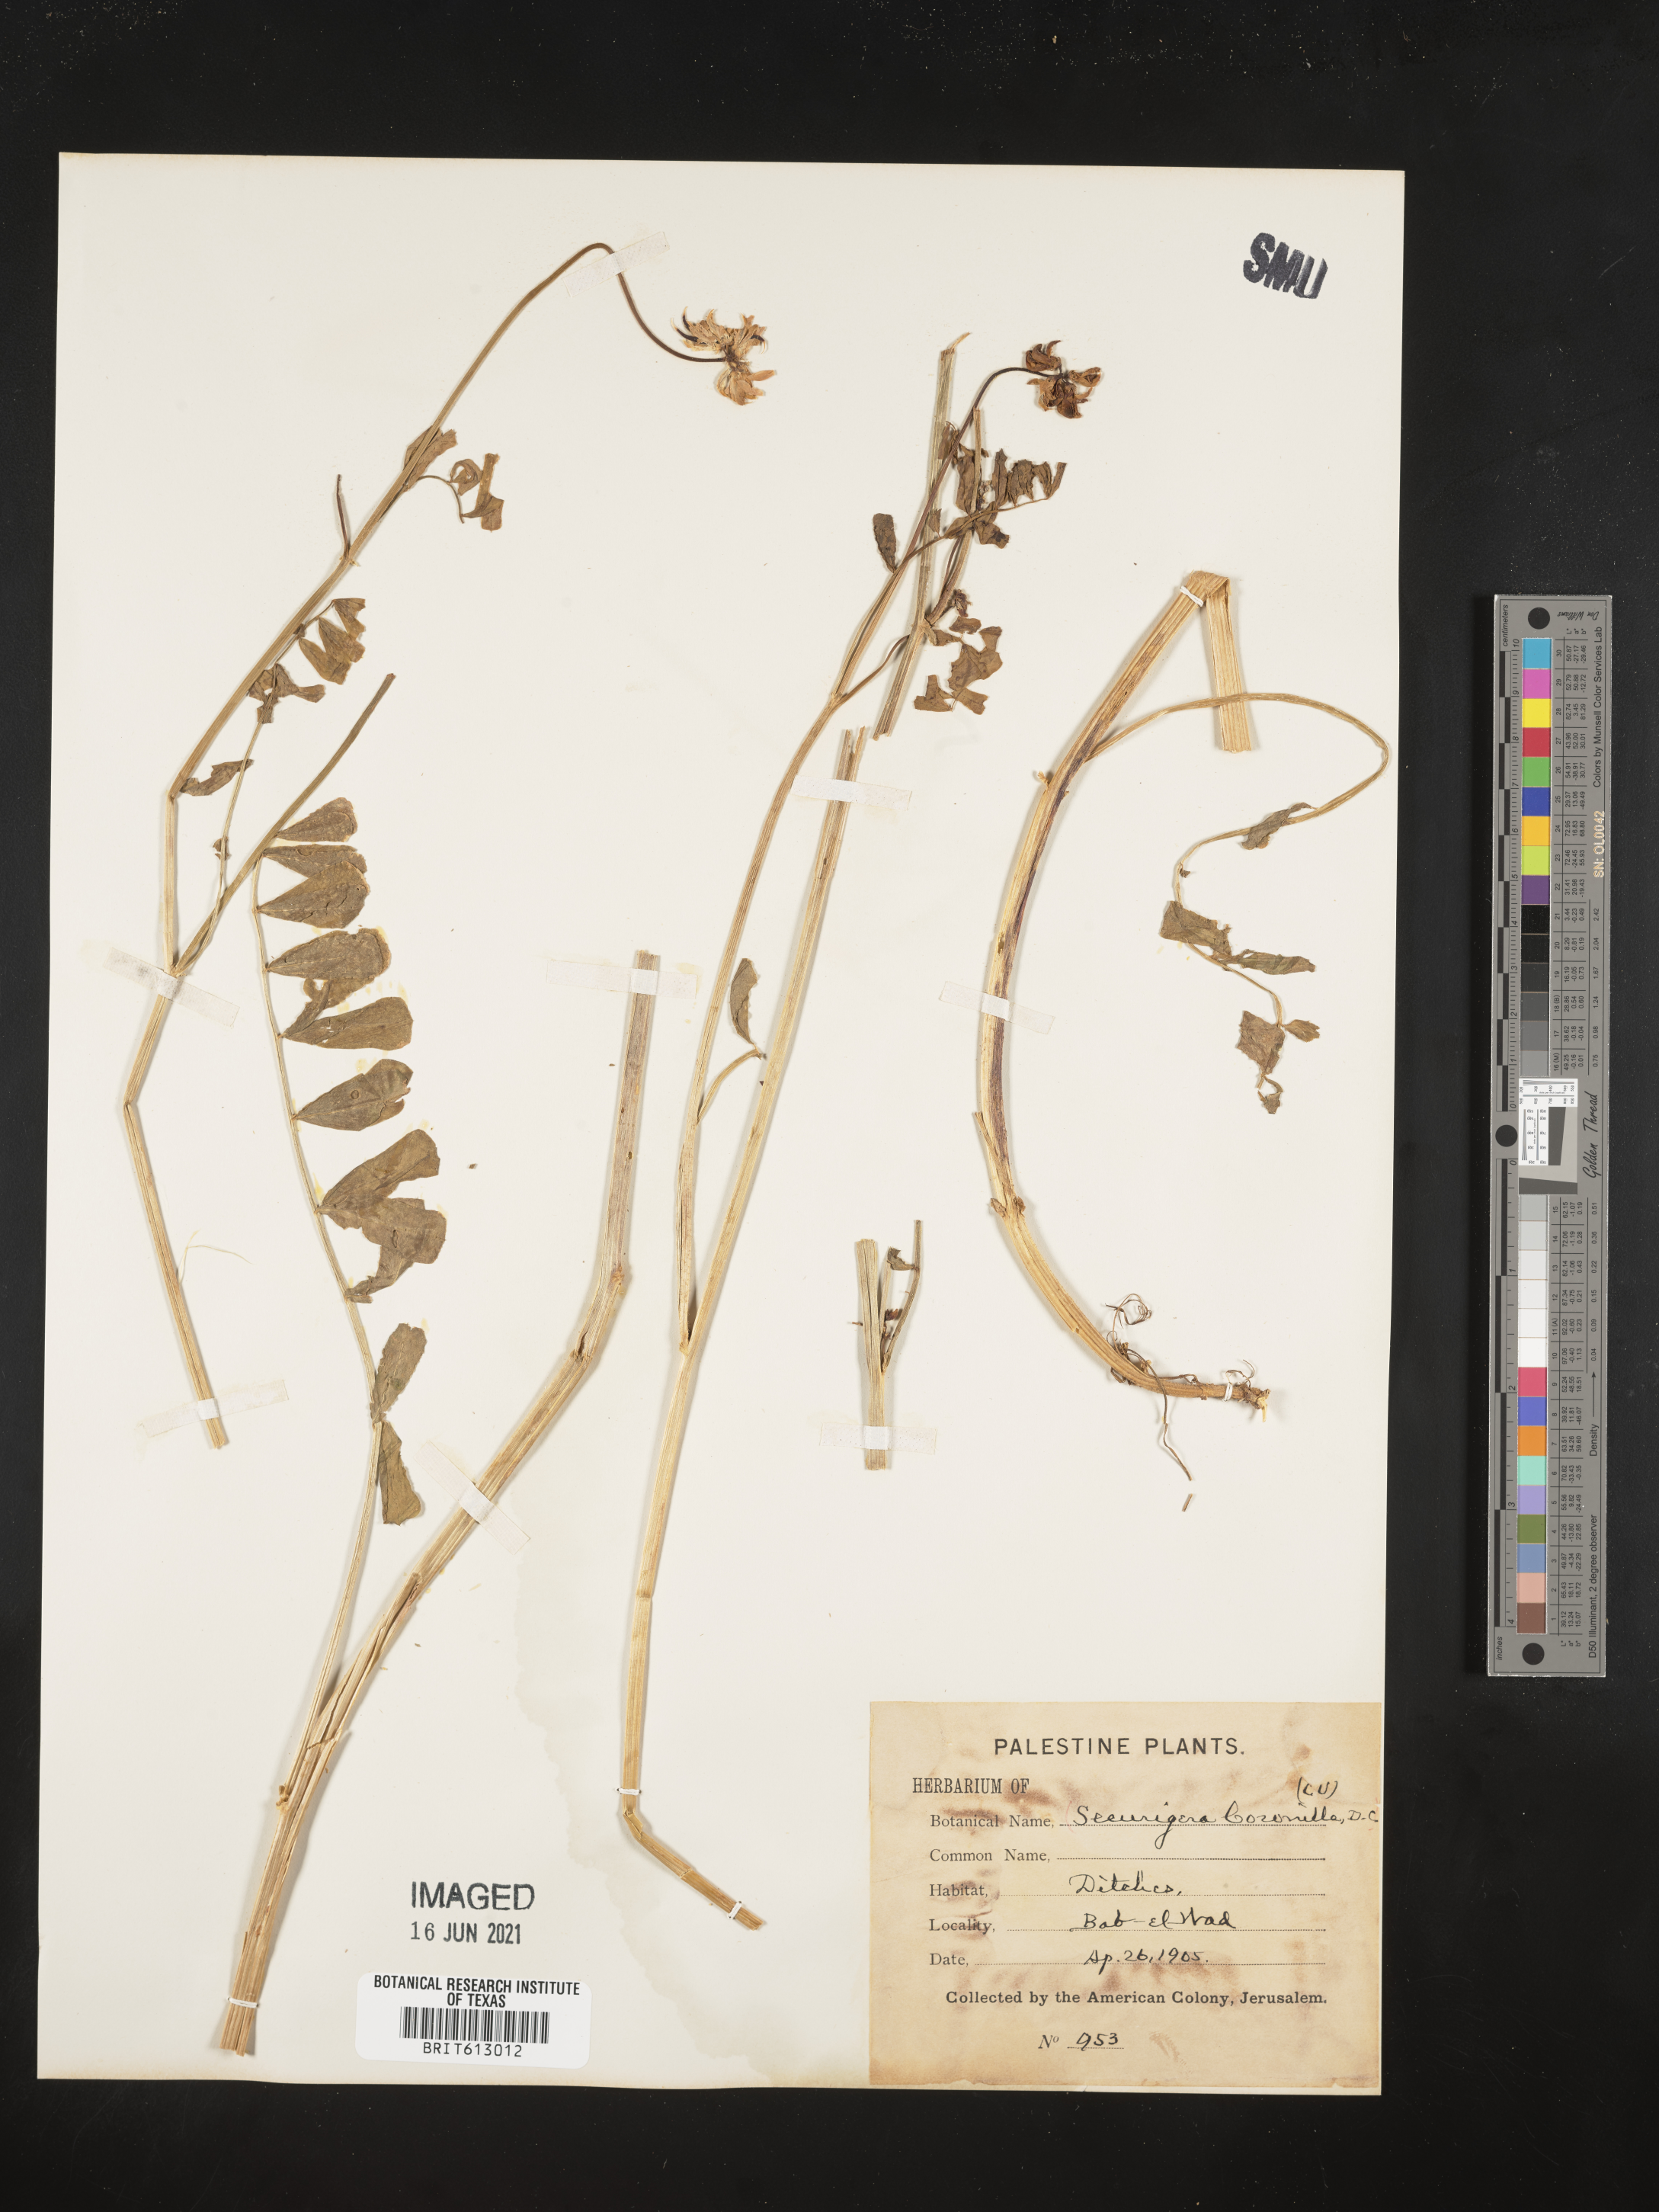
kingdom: Plantae
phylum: Tracheophyta
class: Magnoliopsida
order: Fabales
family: Fabaceae
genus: Coronilla
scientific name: Coronilla securidaca
